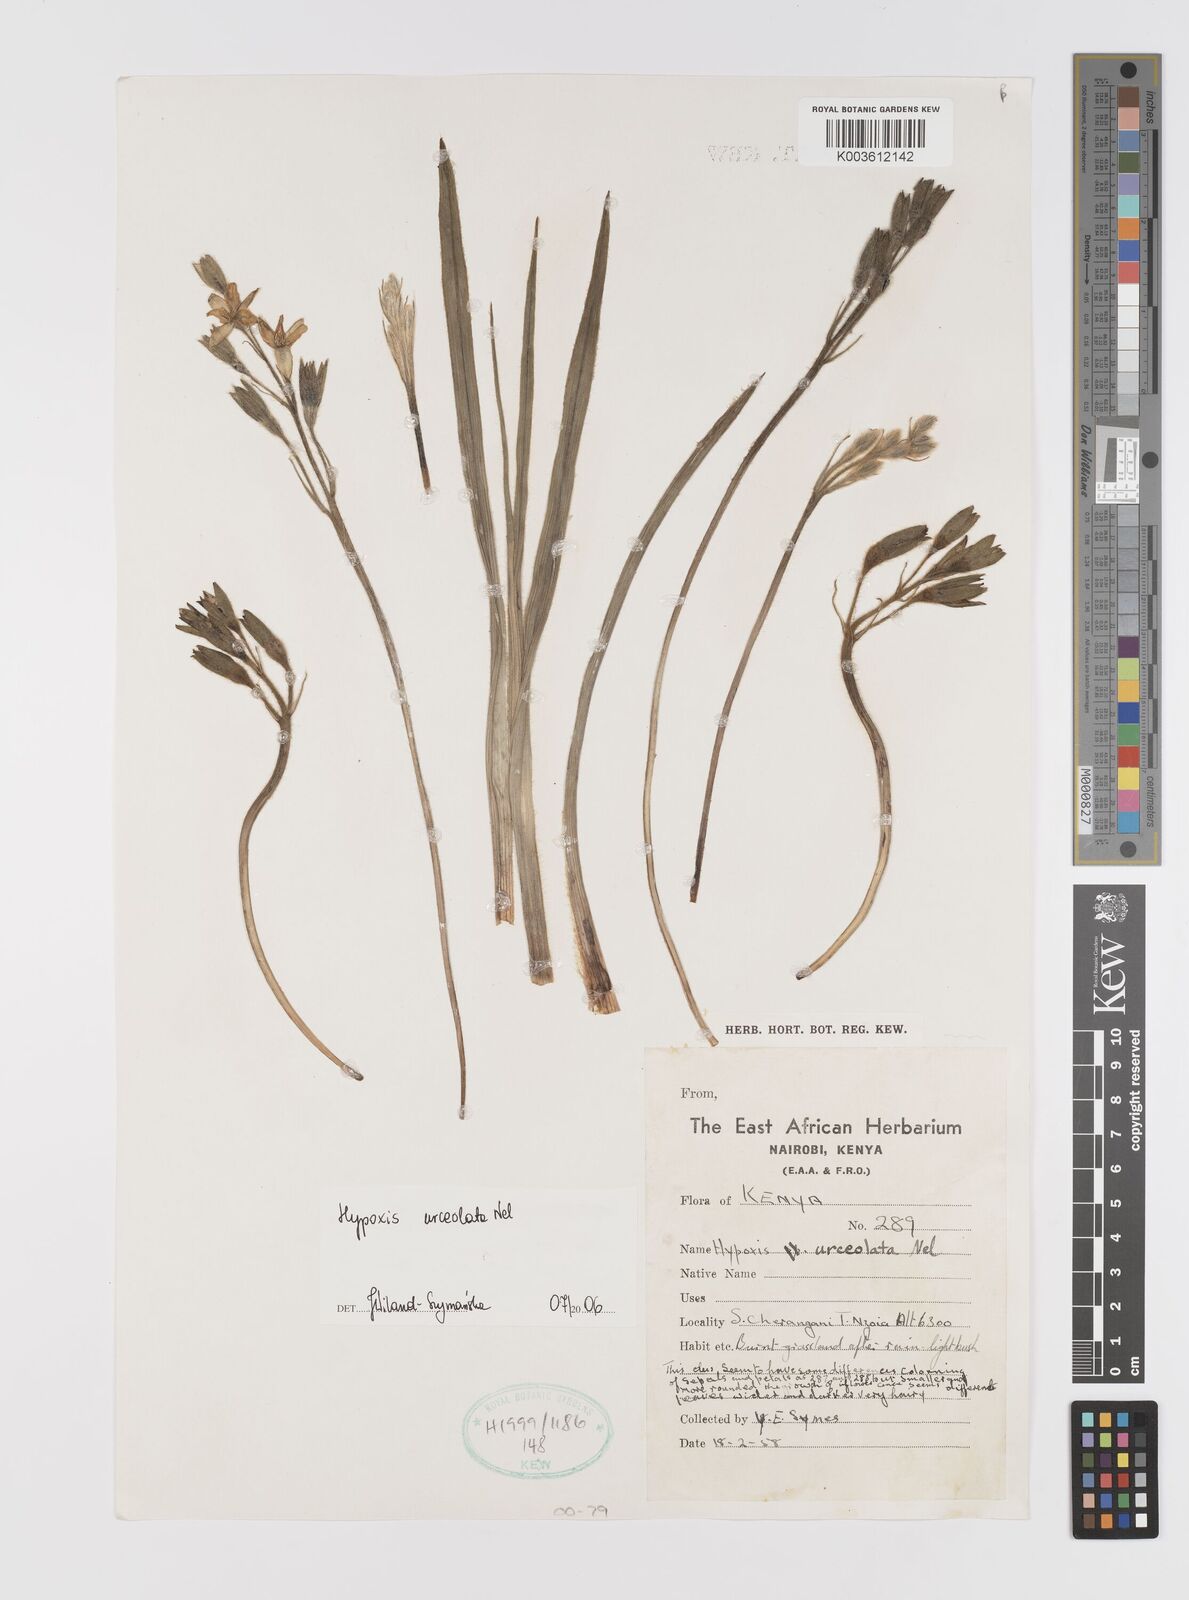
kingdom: Plantae
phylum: Tracheophyta
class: Liliopsida
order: Asparagales
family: Hypoxidaceae
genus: Hypoxis
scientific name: Hypoxis urceolata
